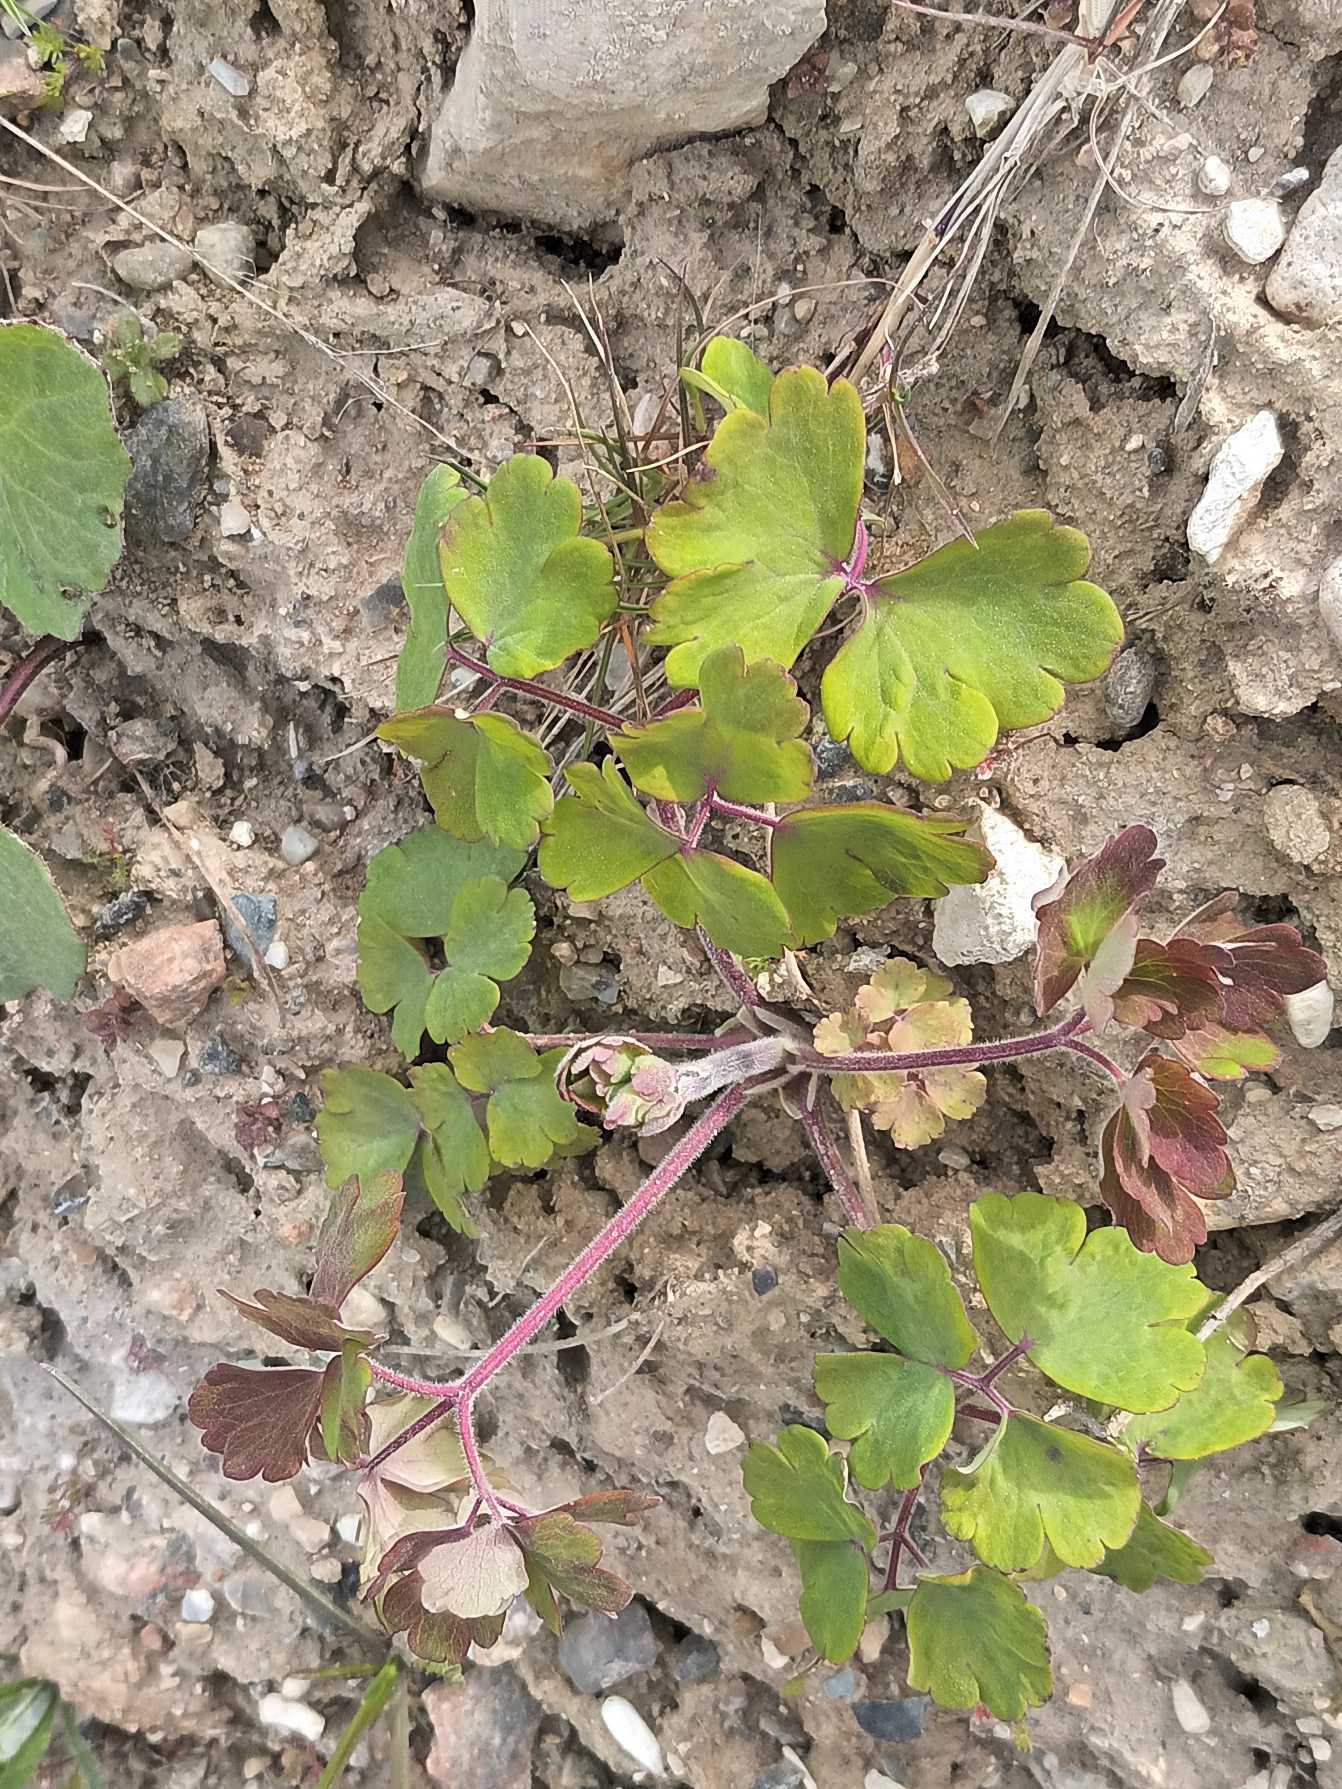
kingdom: Plantae
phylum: Tracheophyta
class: Magnoliopsida
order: Ranunculales
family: Ranunculaceae
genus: Aquilegia
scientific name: Aquilegia vulgaris
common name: Akeleje
